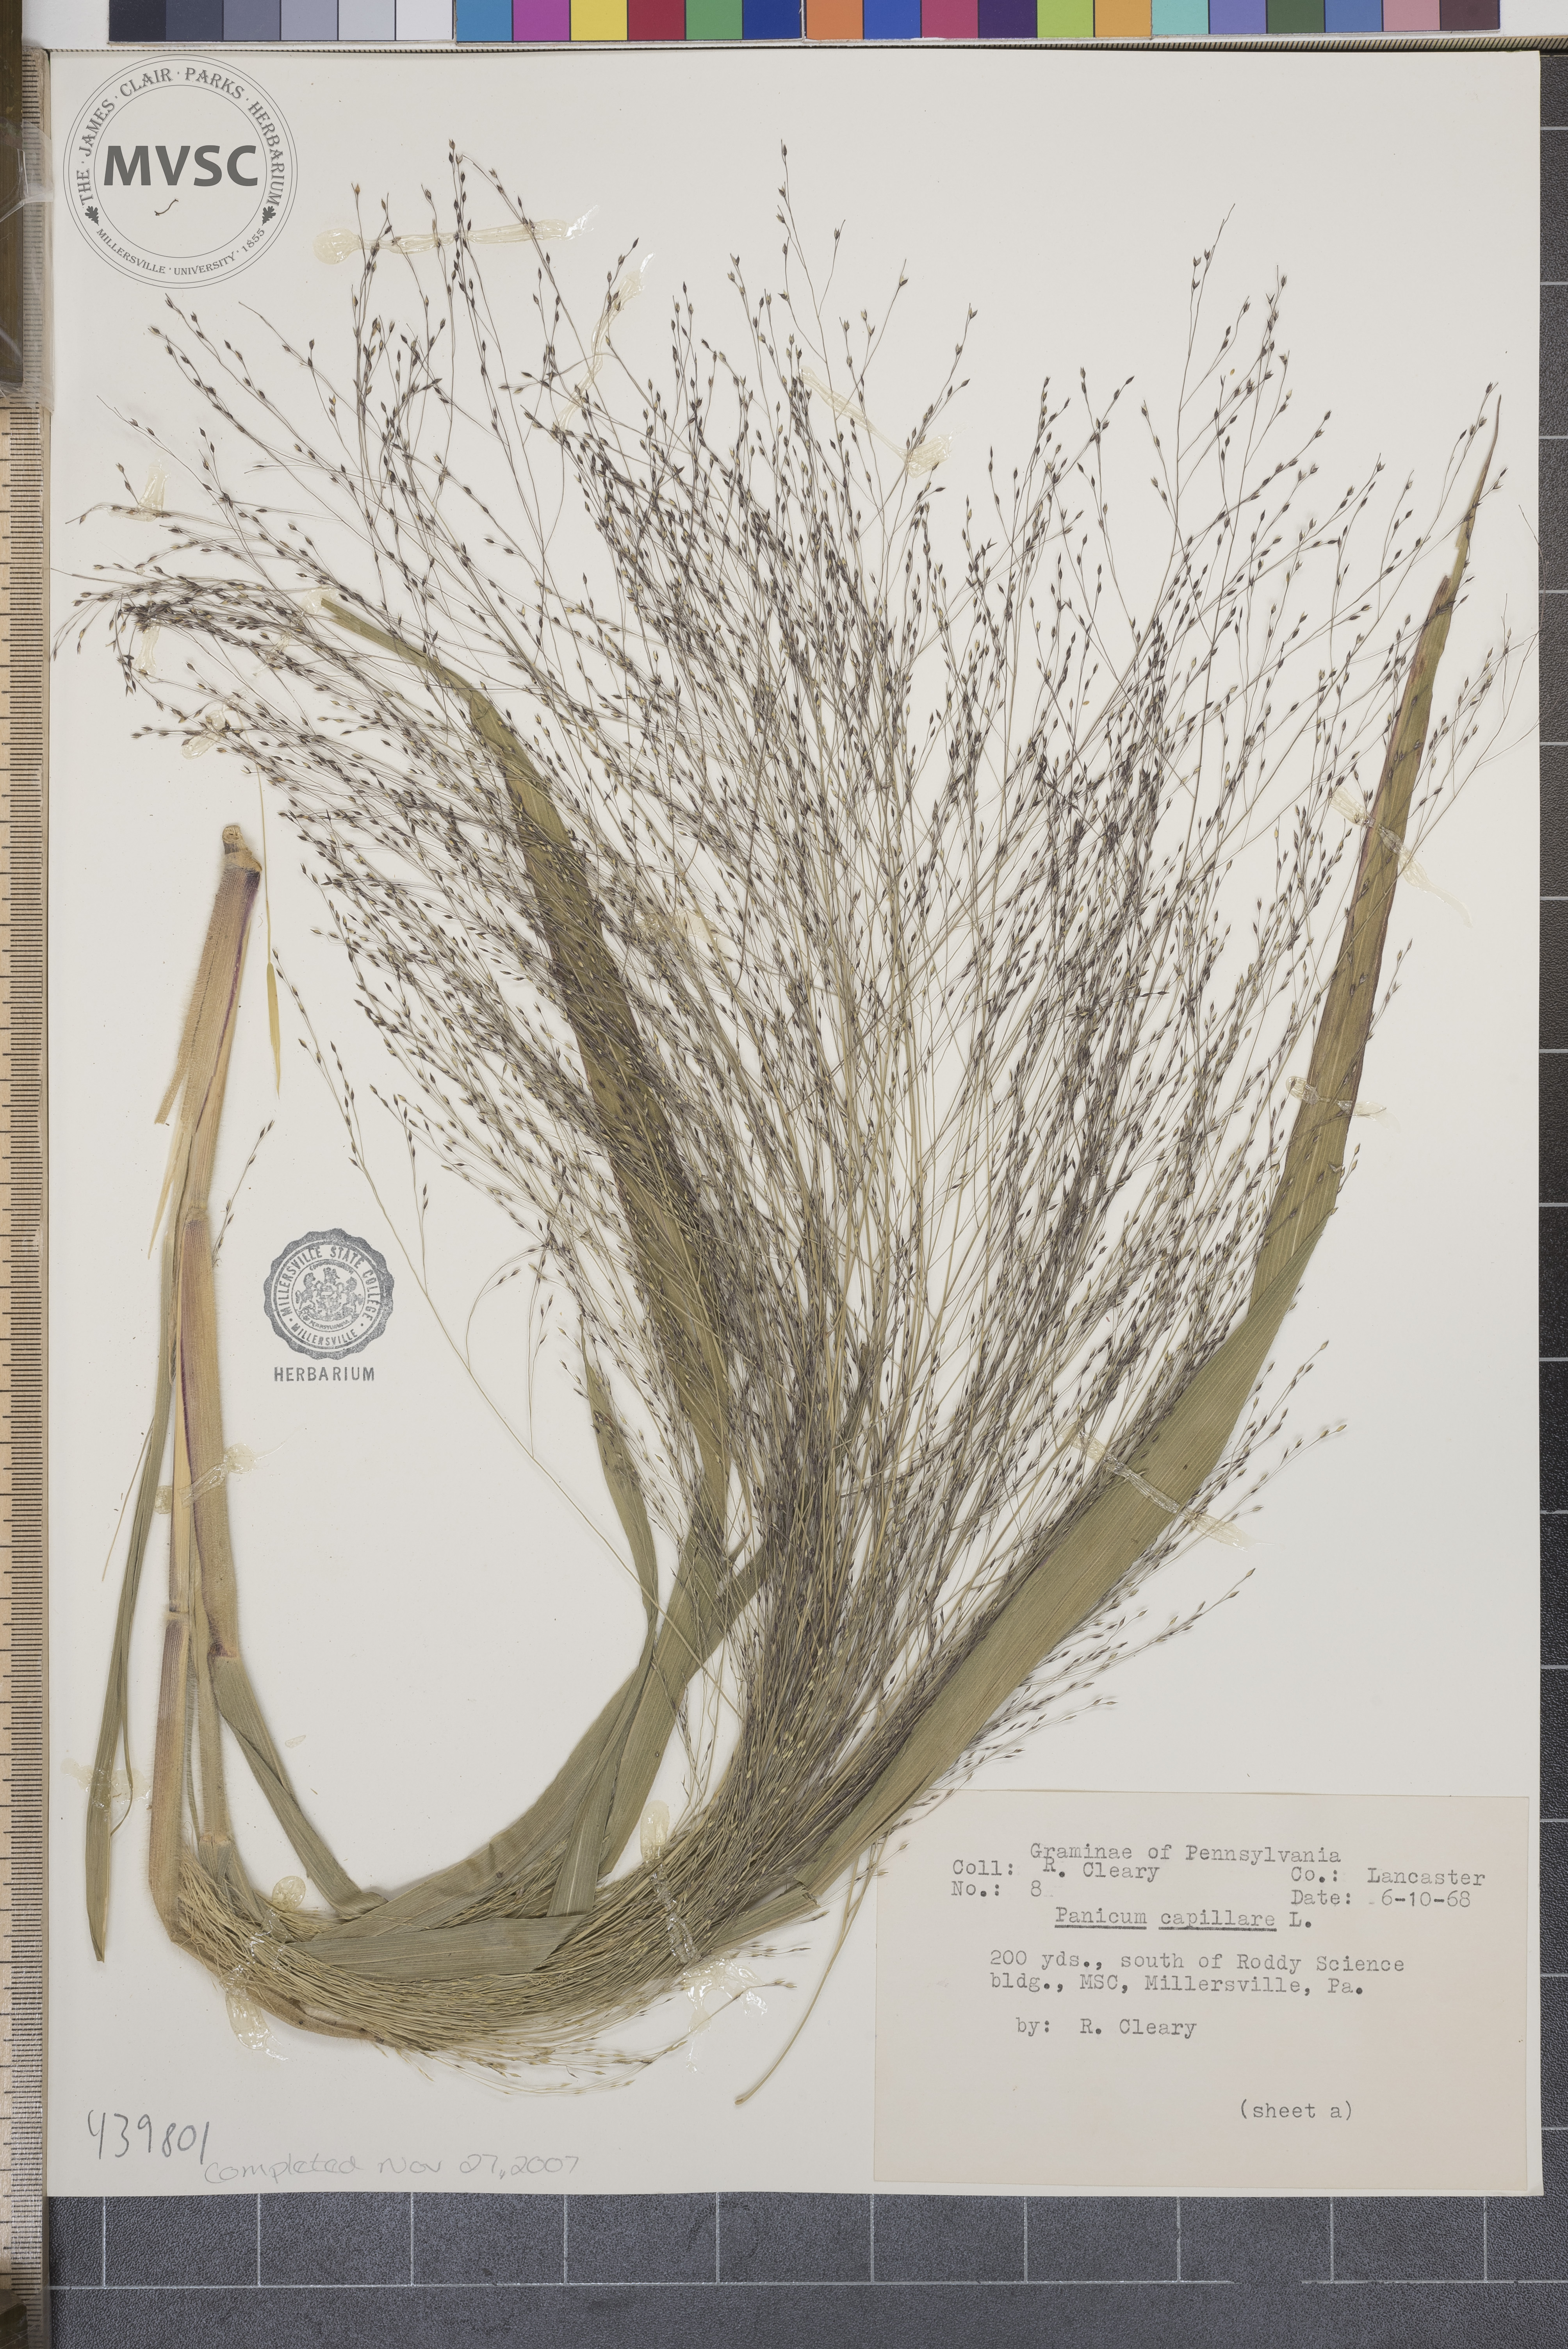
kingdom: Plantae
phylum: Tracheophyta
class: Liliopsida
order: Poales
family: Poaceae
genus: Panicum
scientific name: Panicum capillare
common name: Witch-grass
